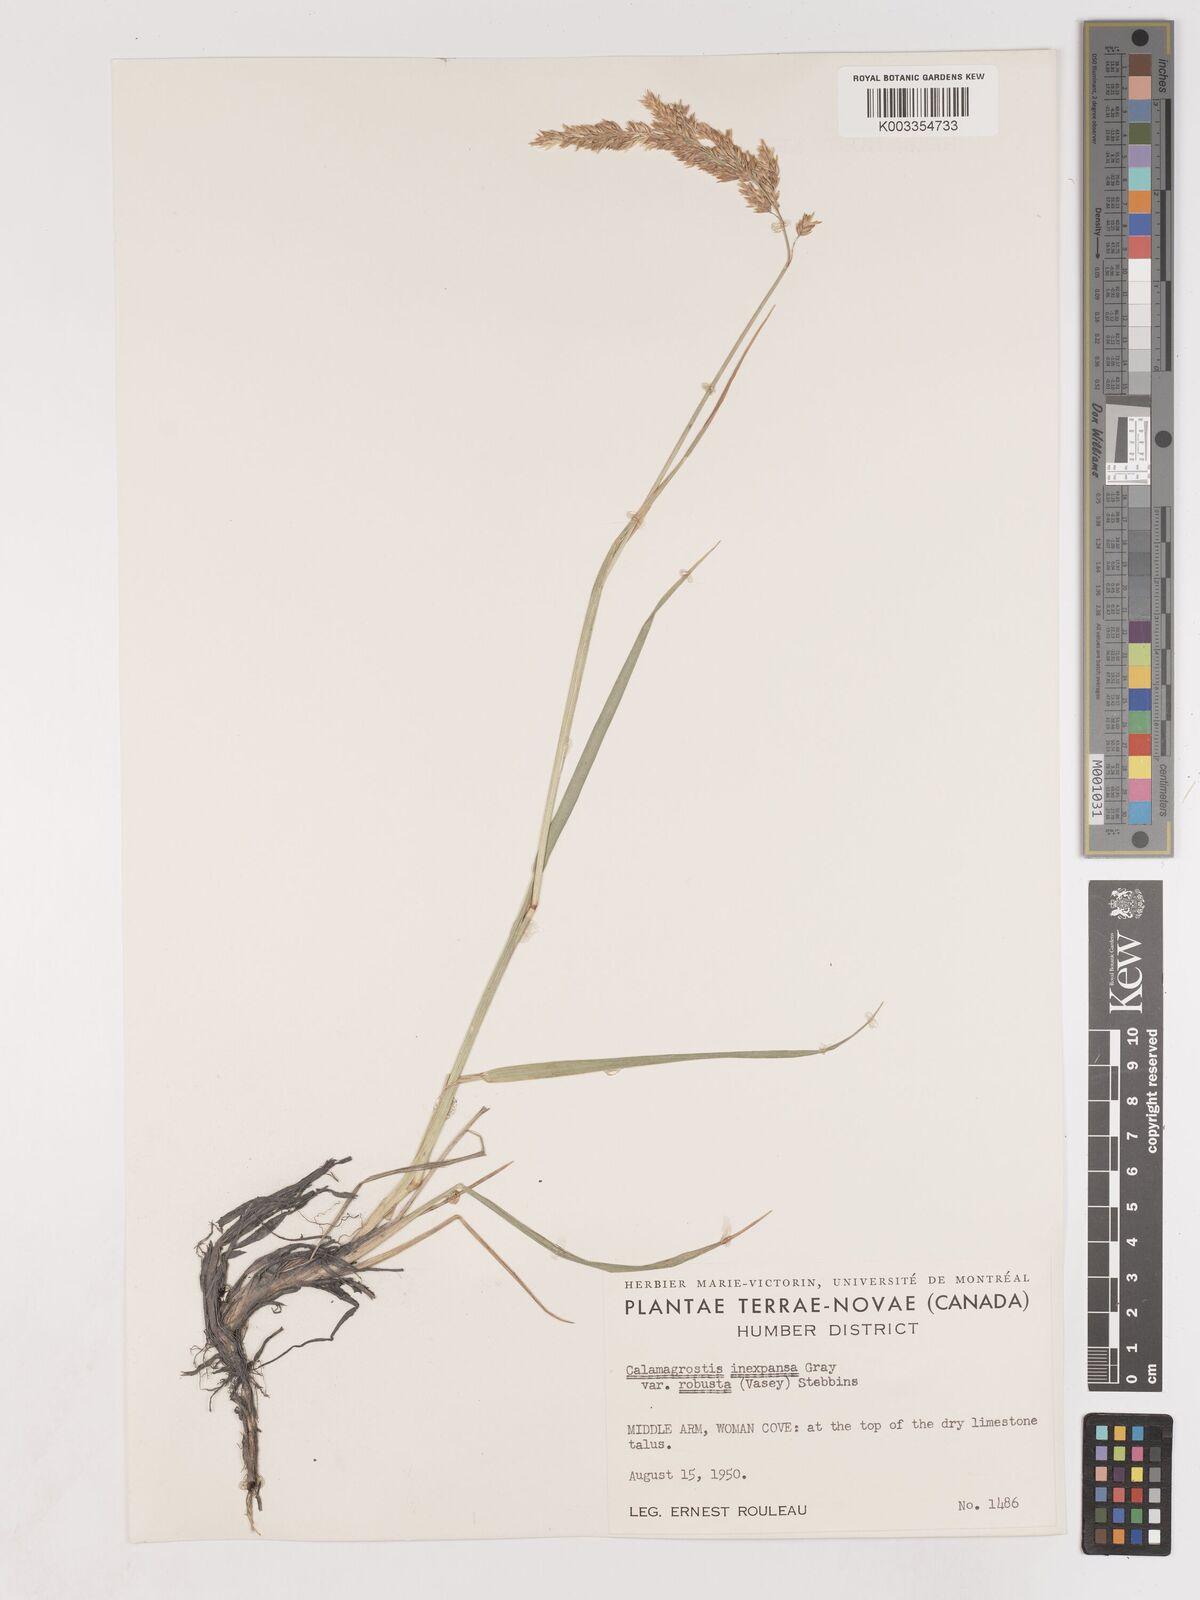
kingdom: Plantae
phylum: Tracheophyta
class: Liliopsida
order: Poales
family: Poaceae
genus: Cinnagrostis
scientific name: Cinnagrostis recta
